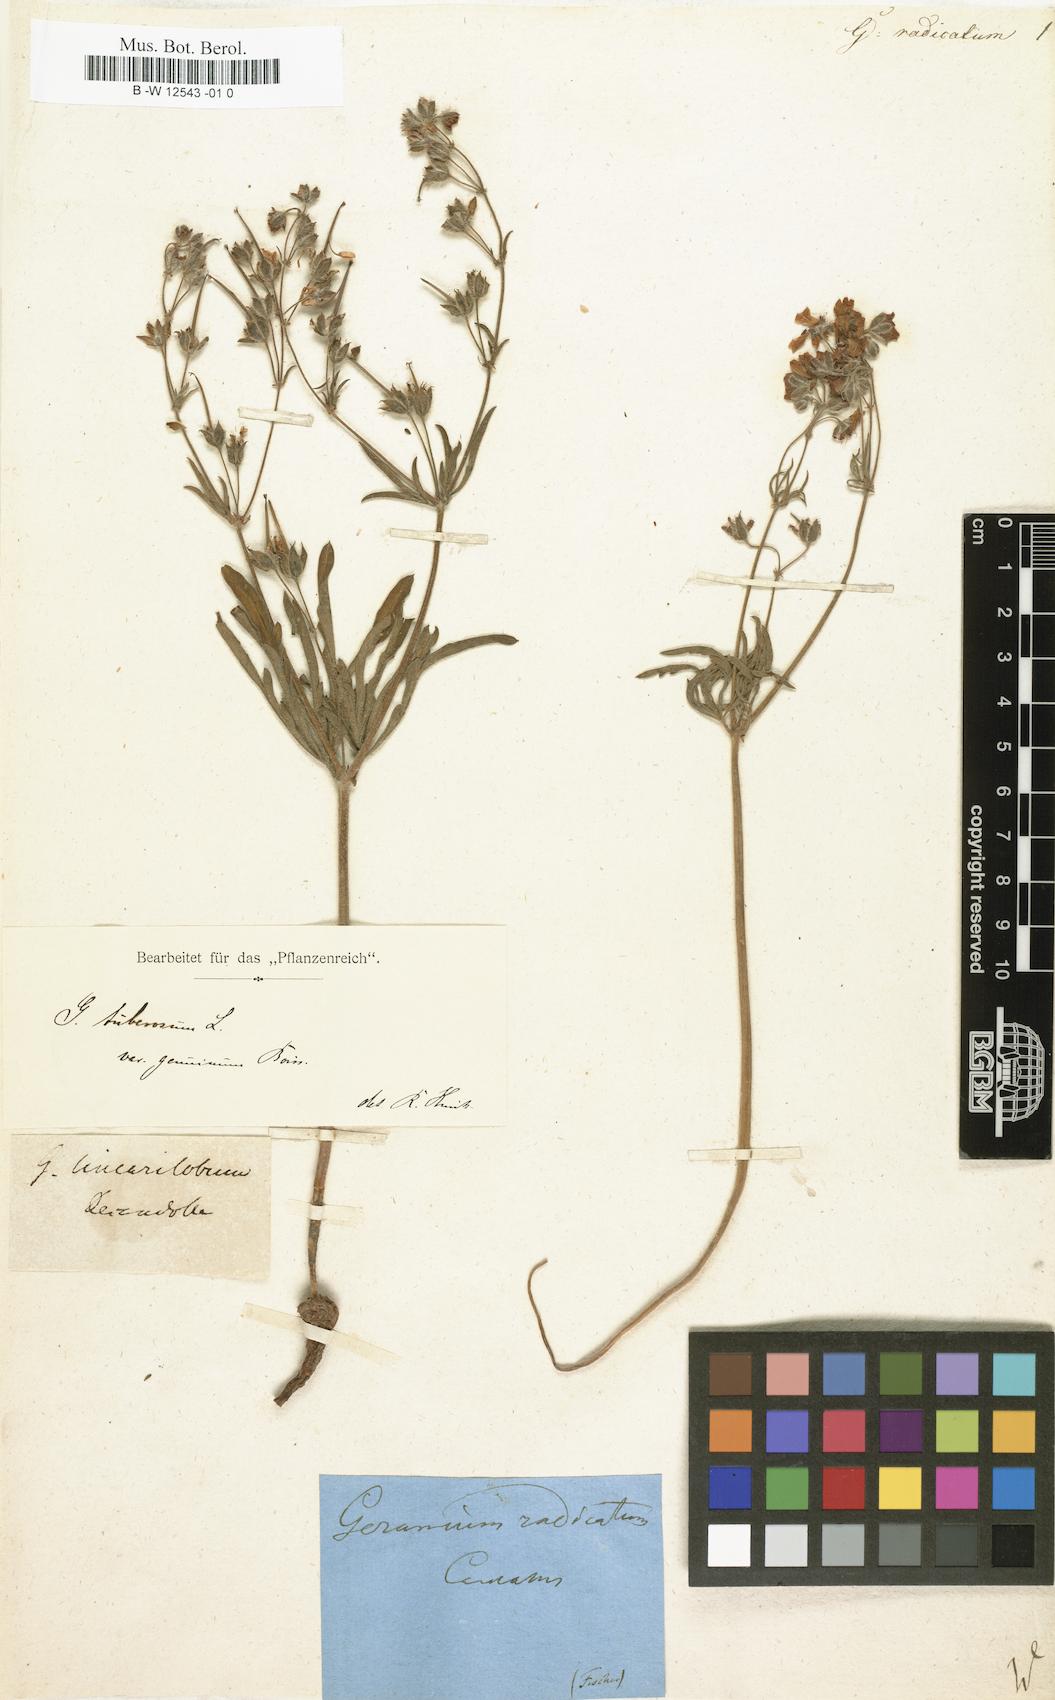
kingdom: Plantae
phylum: Tracheophyta
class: Magnoliopsida
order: Geraniales
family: Geraniaceae
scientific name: Geraniaceae
